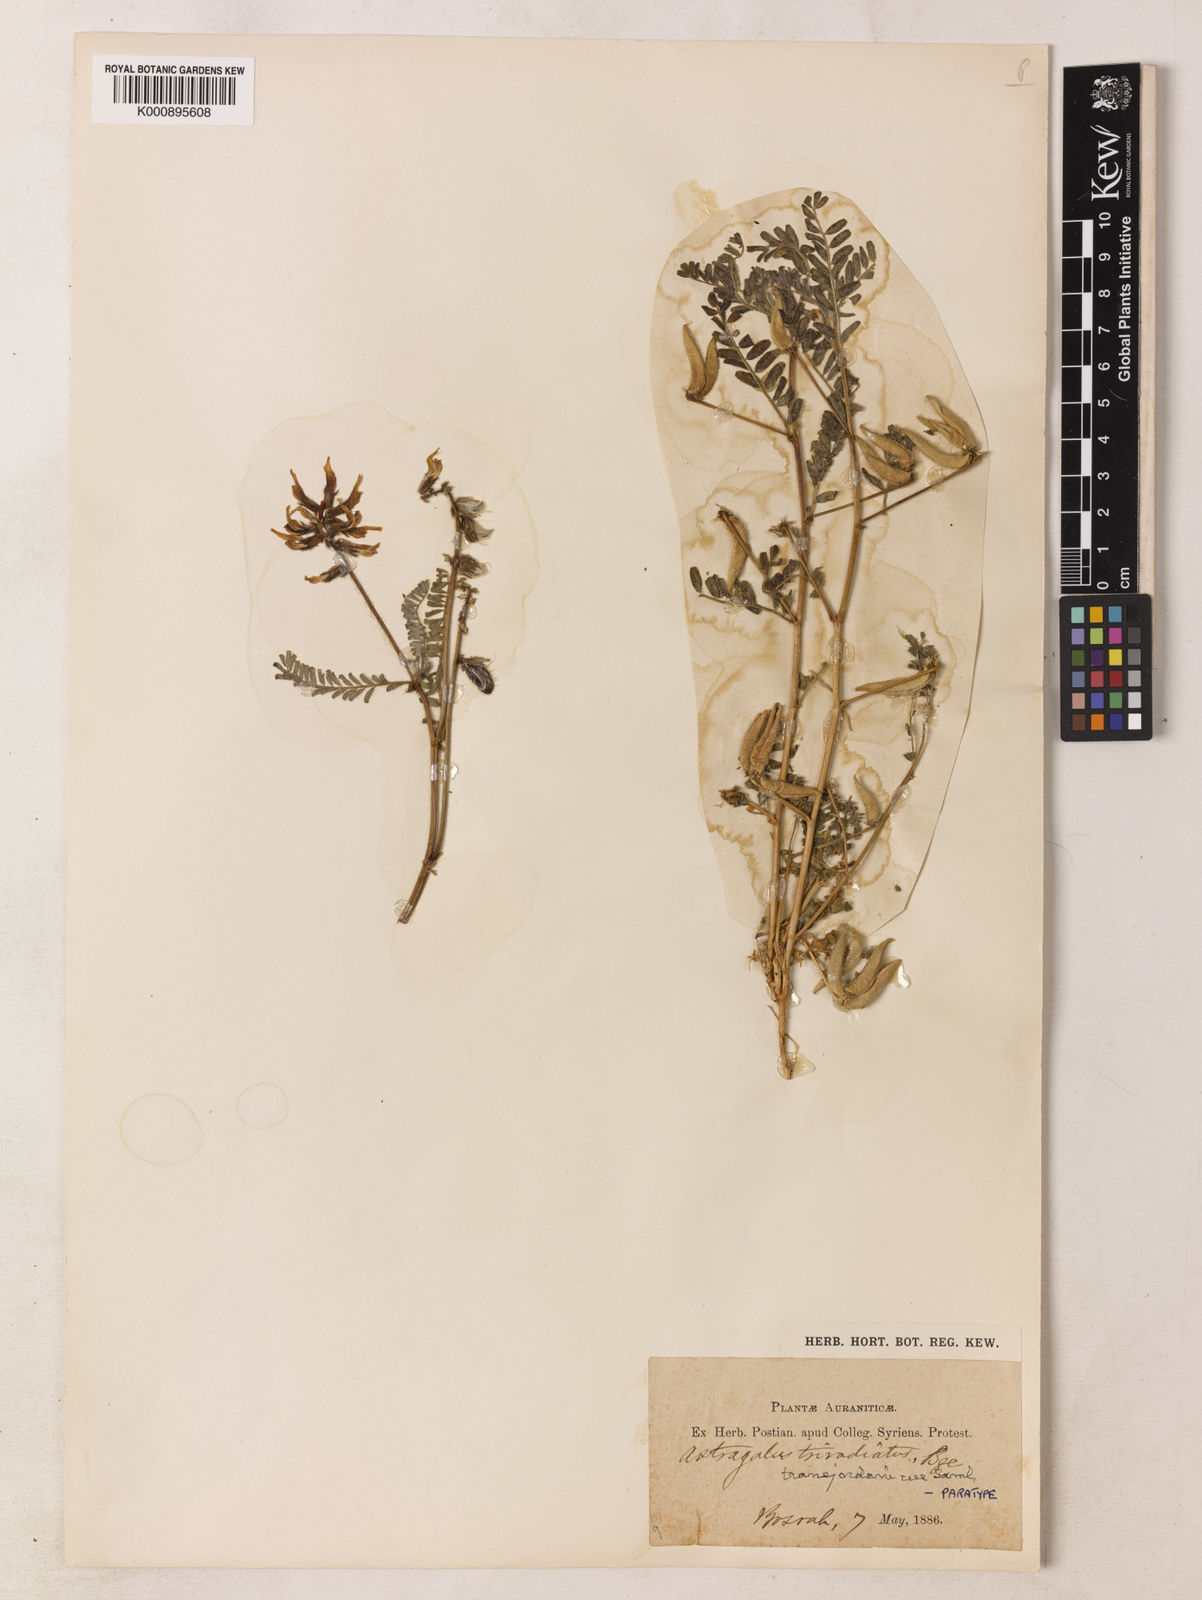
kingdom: Plantae
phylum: Tracheophyta
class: Magnoliopsida
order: Fabales
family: Fabaceae
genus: Astragalus
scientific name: Astragalus transjordanicus
